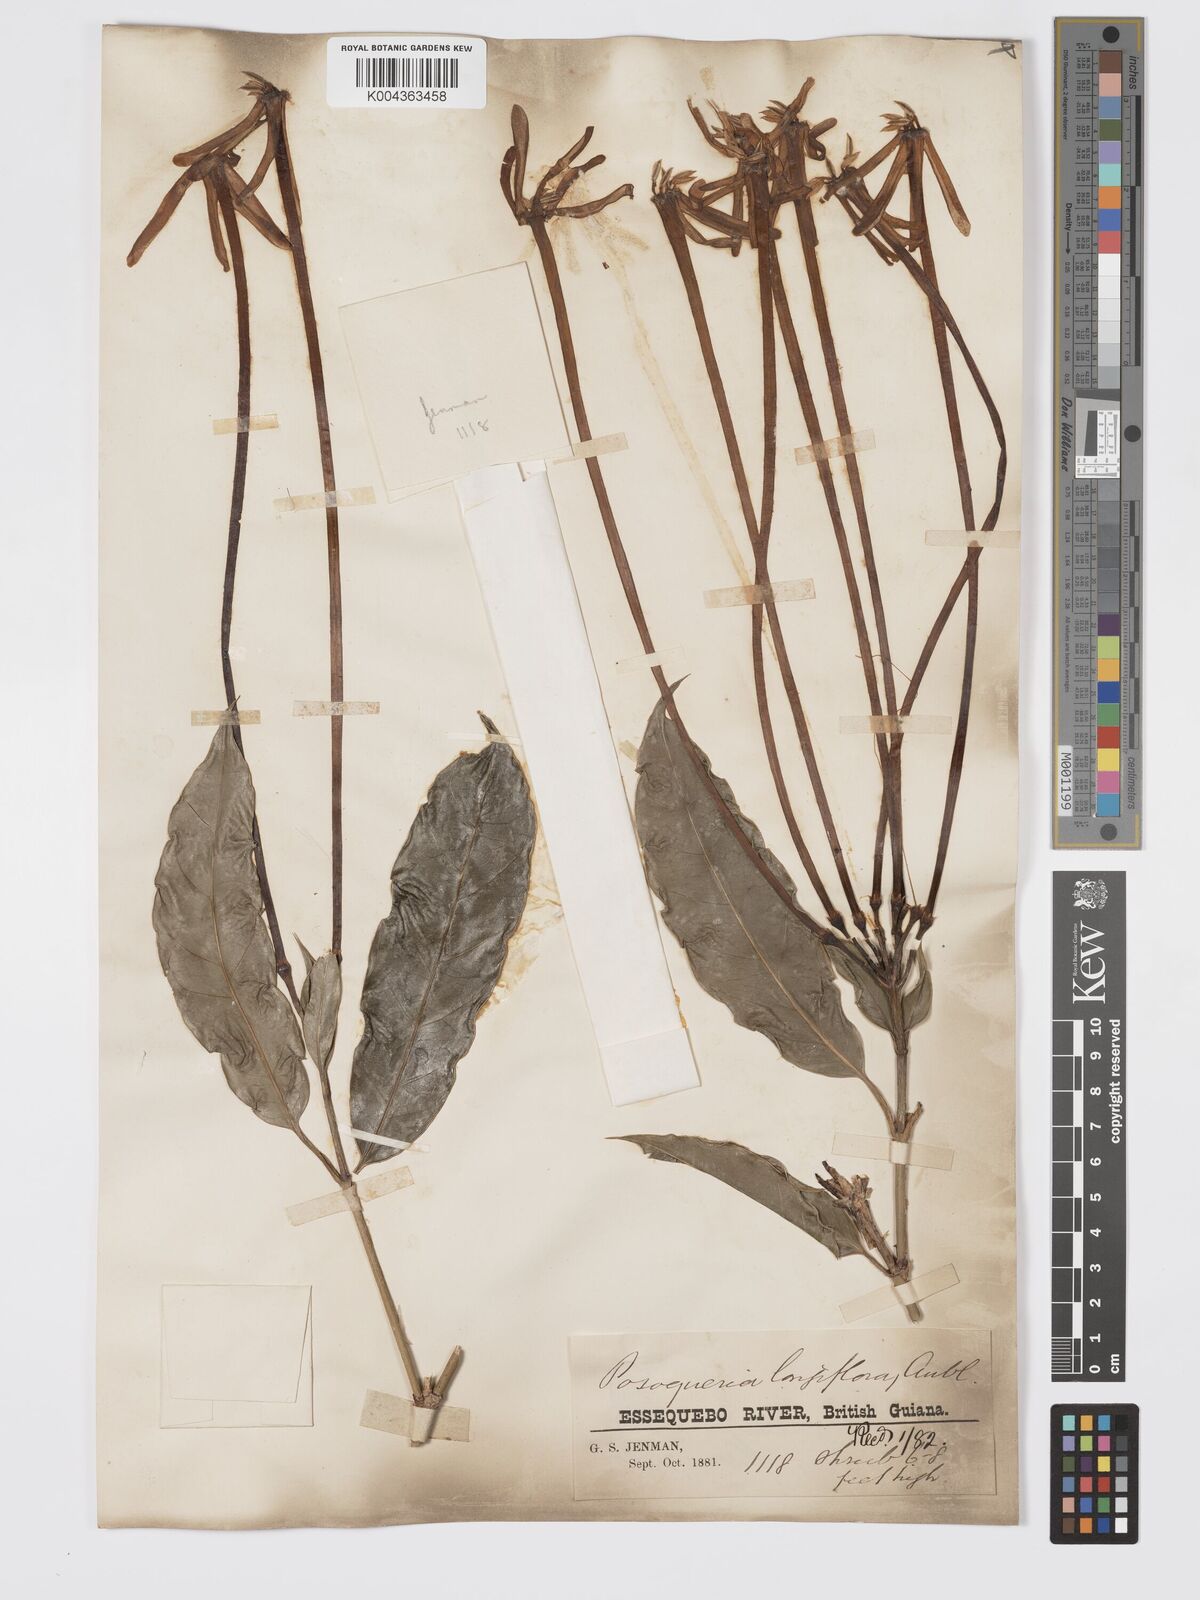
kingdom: Plantae
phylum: Tracheophyta
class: Magnoliopsida
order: Gentianales
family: Rubiaceae
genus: Posoqueria
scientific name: Posoqueria
